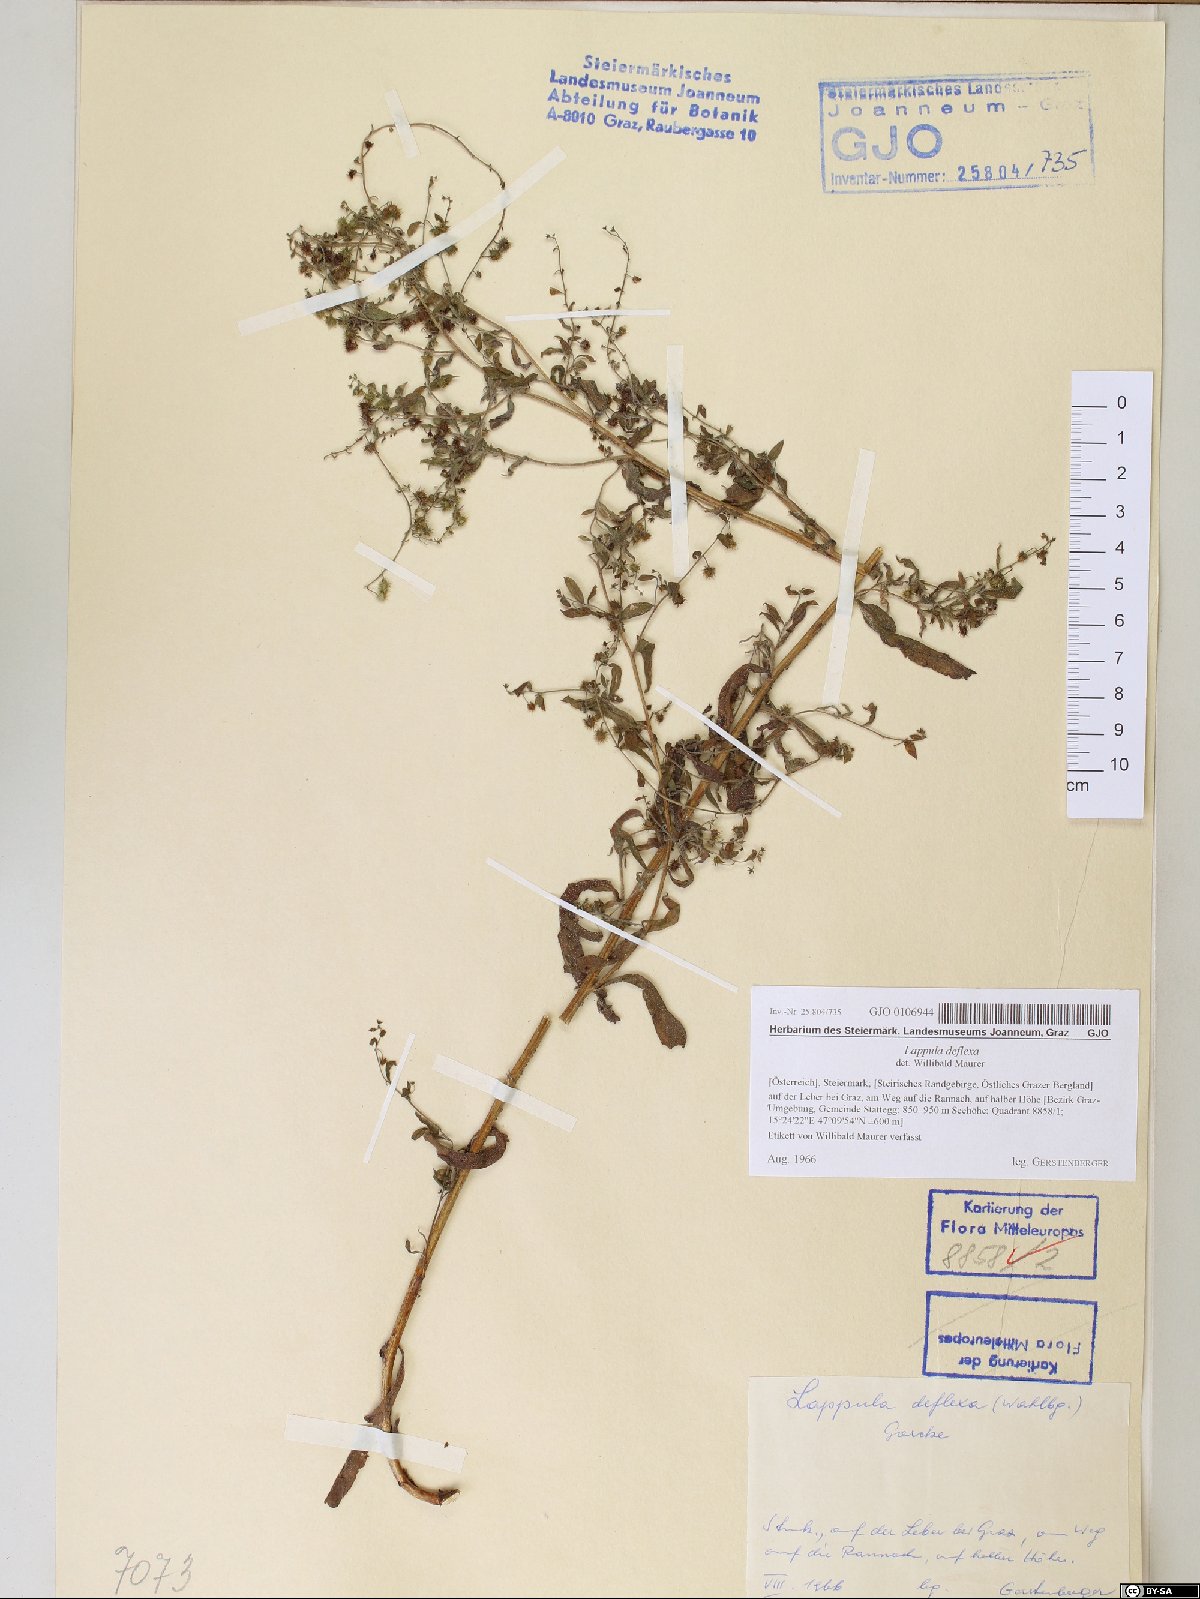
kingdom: Plantae
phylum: Tracheophyta
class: Magnoliopsida
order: Boraginales
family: Boraginaceae
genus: Hackelia
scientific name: Hackelia deflexa
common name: Nodding stickseed
